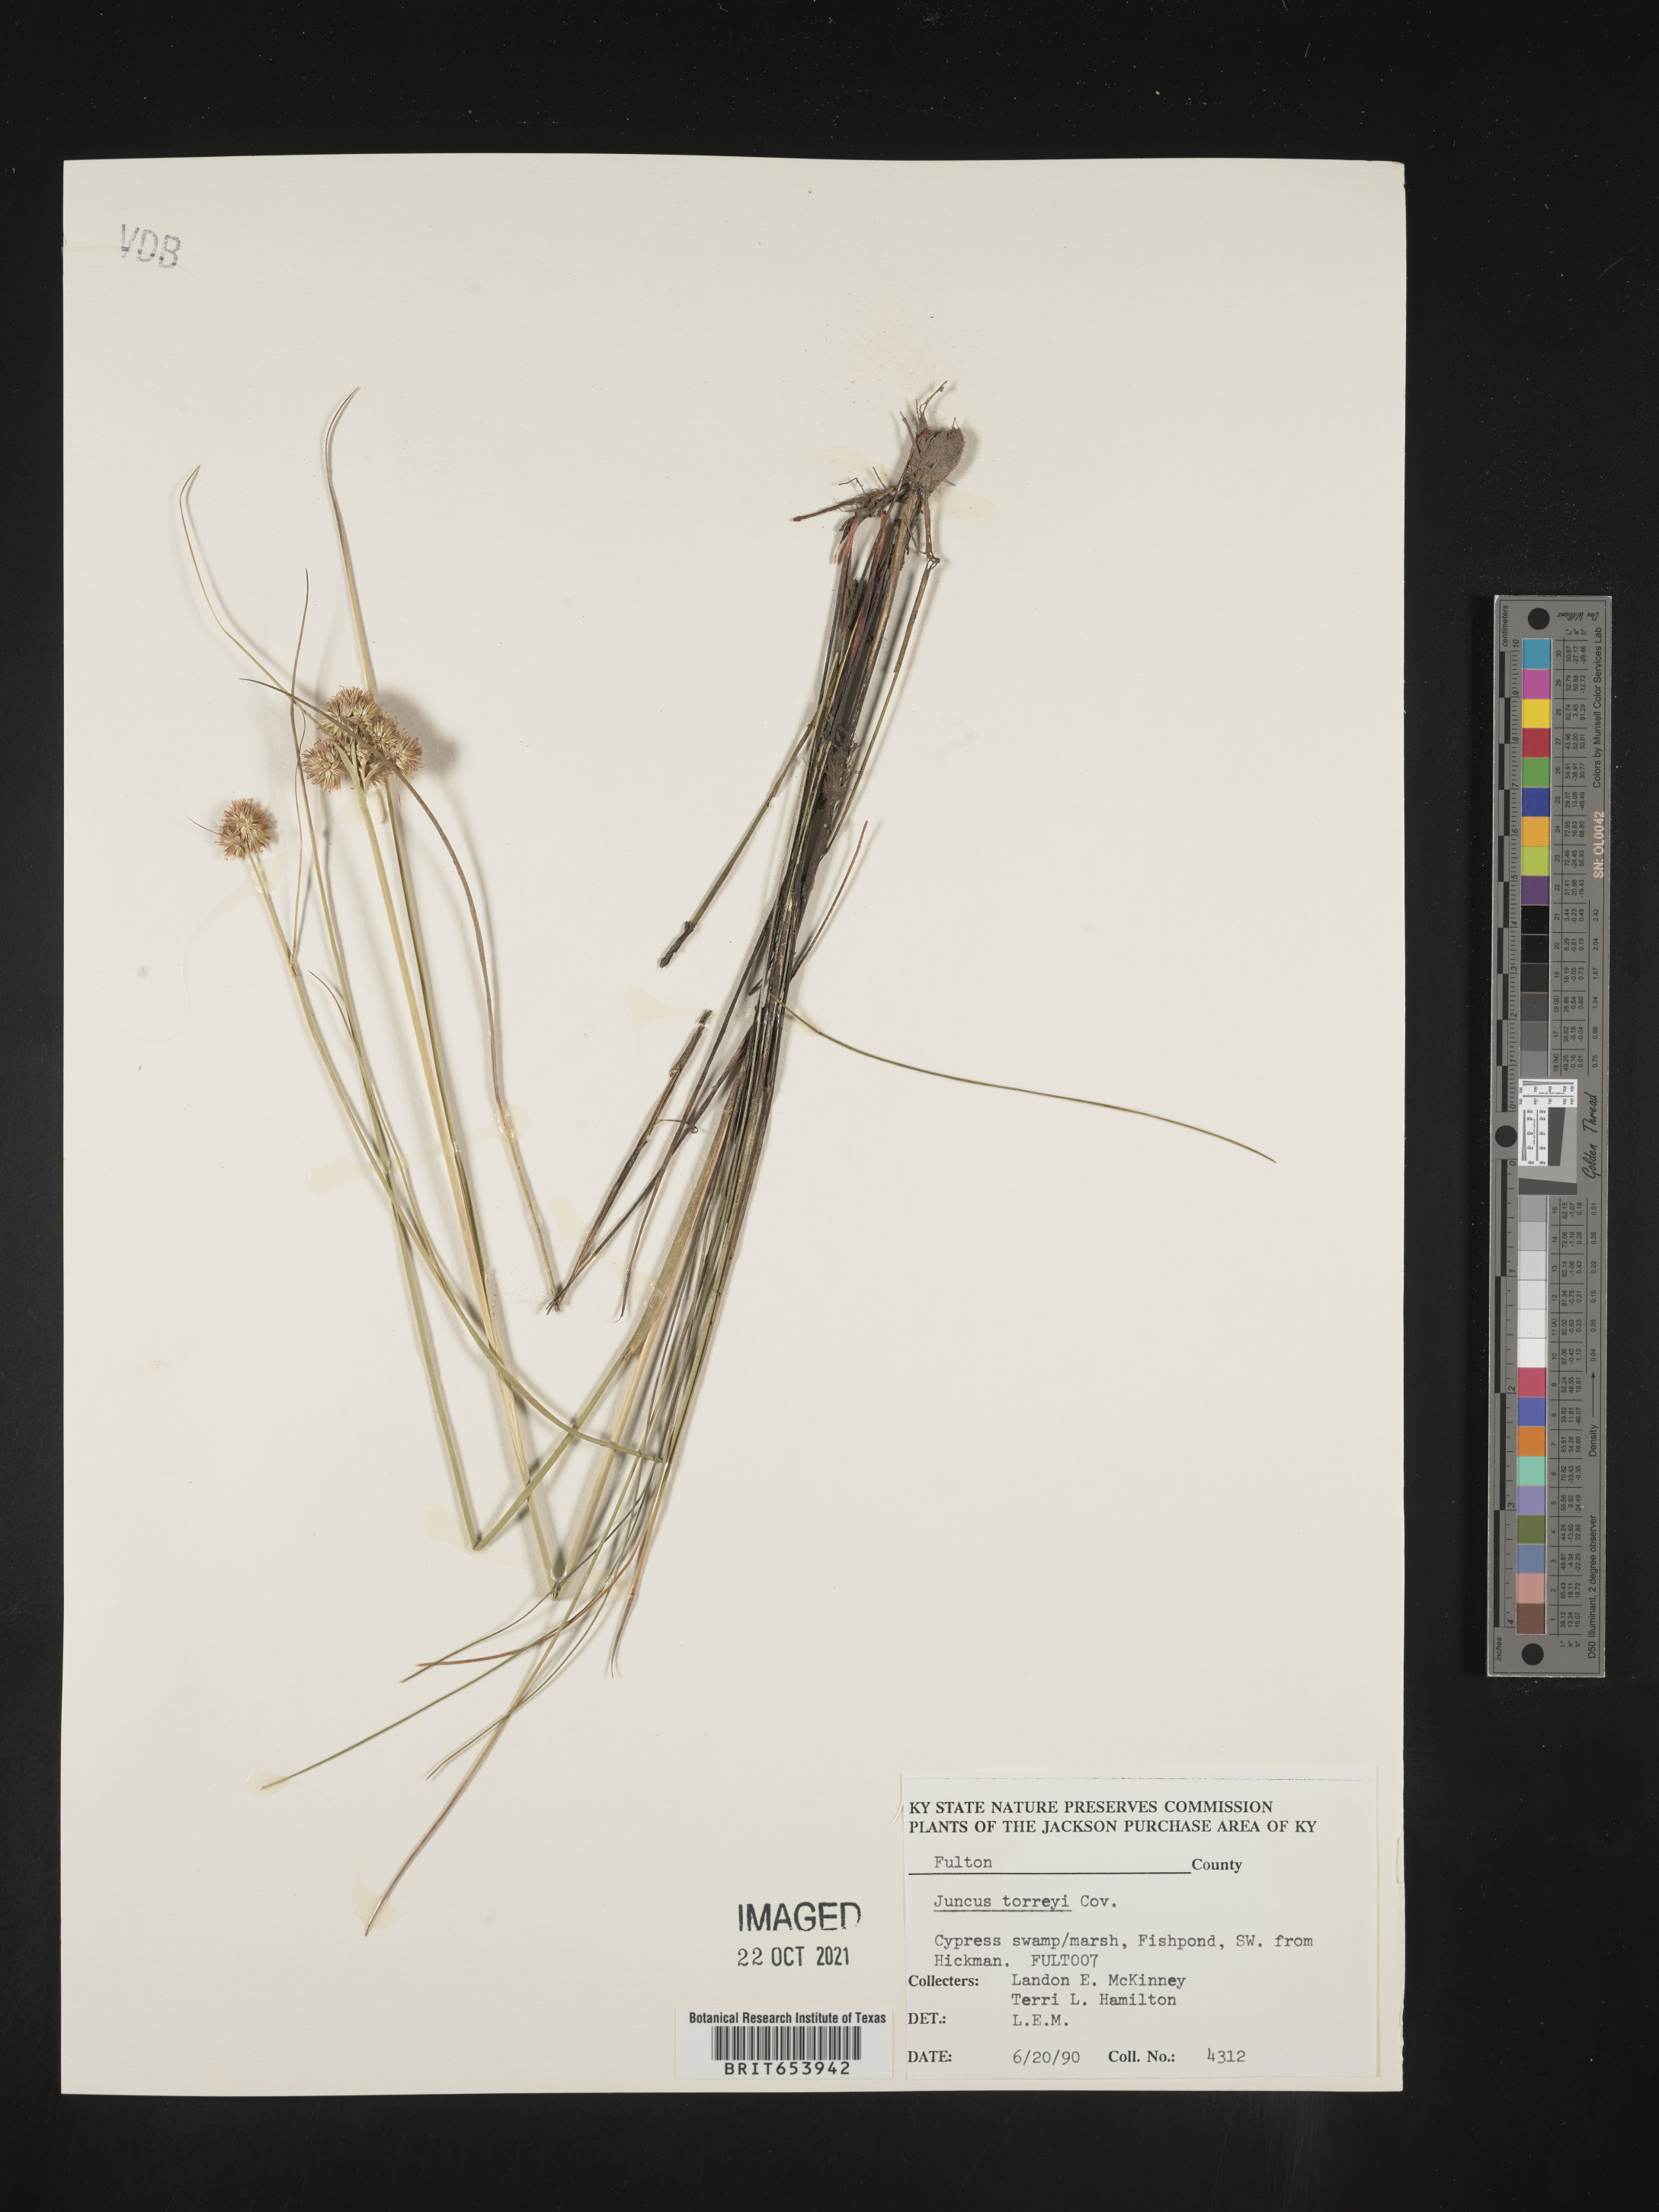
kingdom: Plantae
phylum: Tracheophyta
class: Liliopsida
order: Poales
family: Juncaceae
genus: Juncus
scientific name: Juncus torreyi
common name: Torrey's rush
